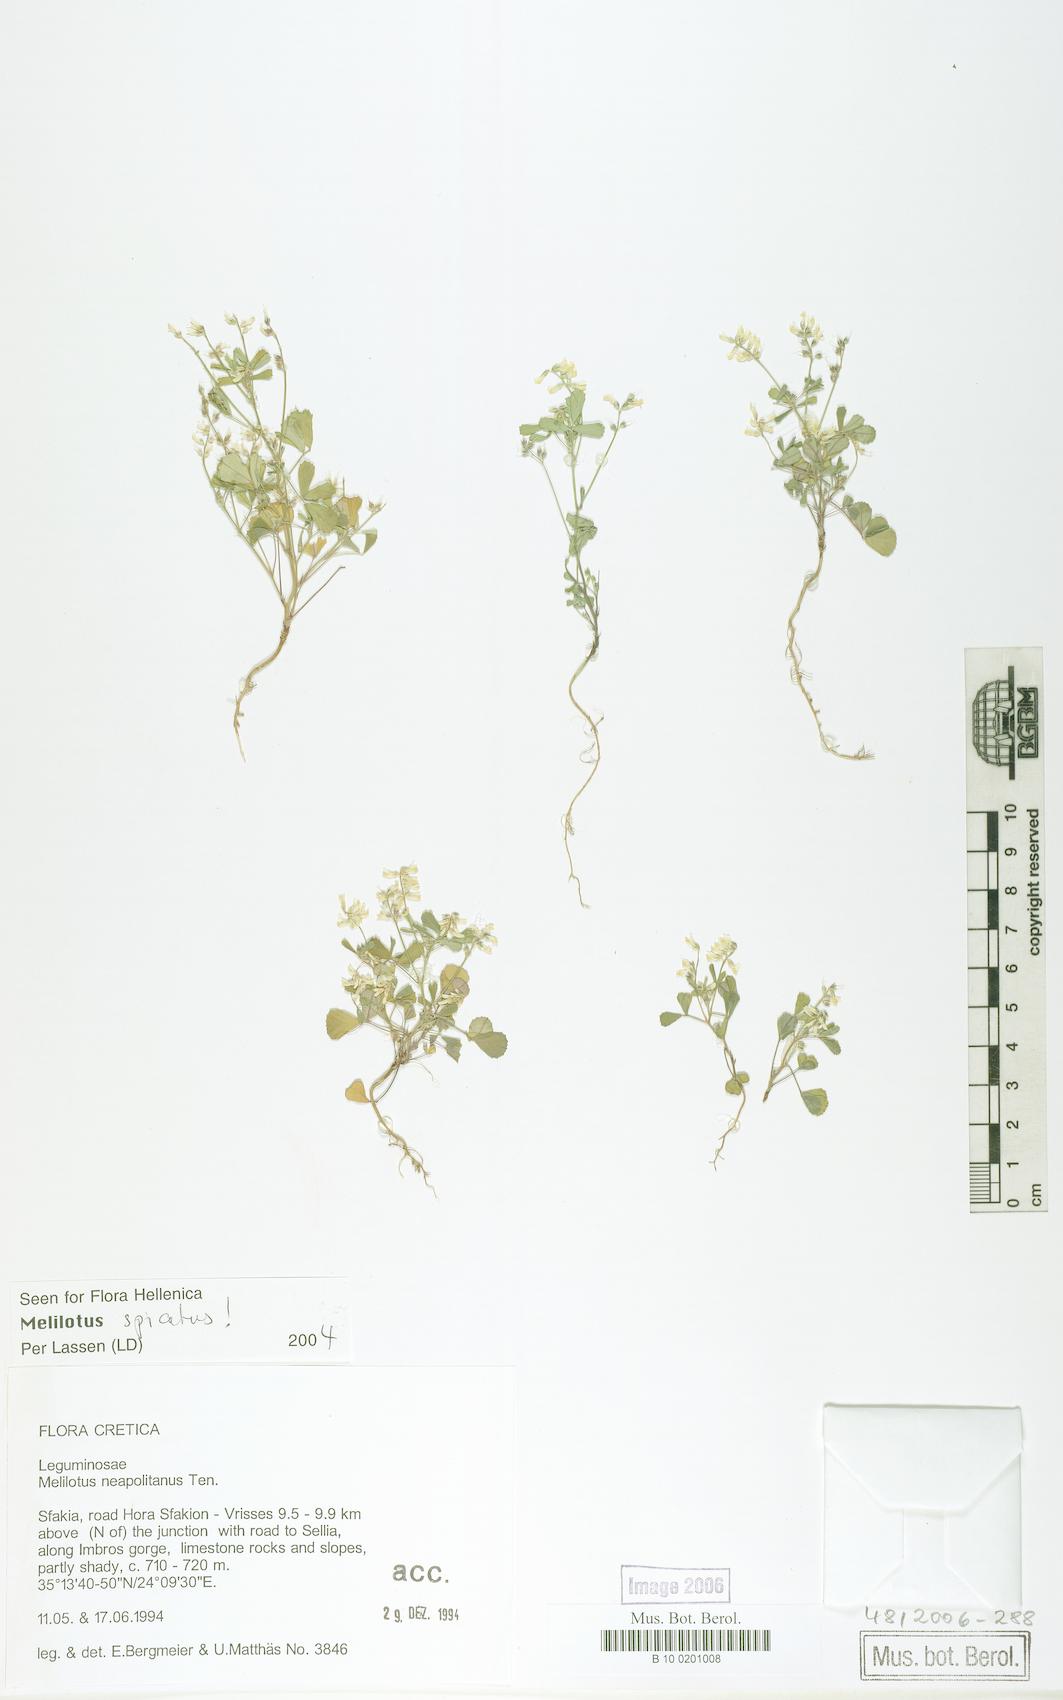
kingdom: Plantae
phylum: Tracheophyta
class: Magnoliopsida
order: Fabales
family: Fabaceae
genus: Melilotus
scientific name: Melilotus neapolitanus
